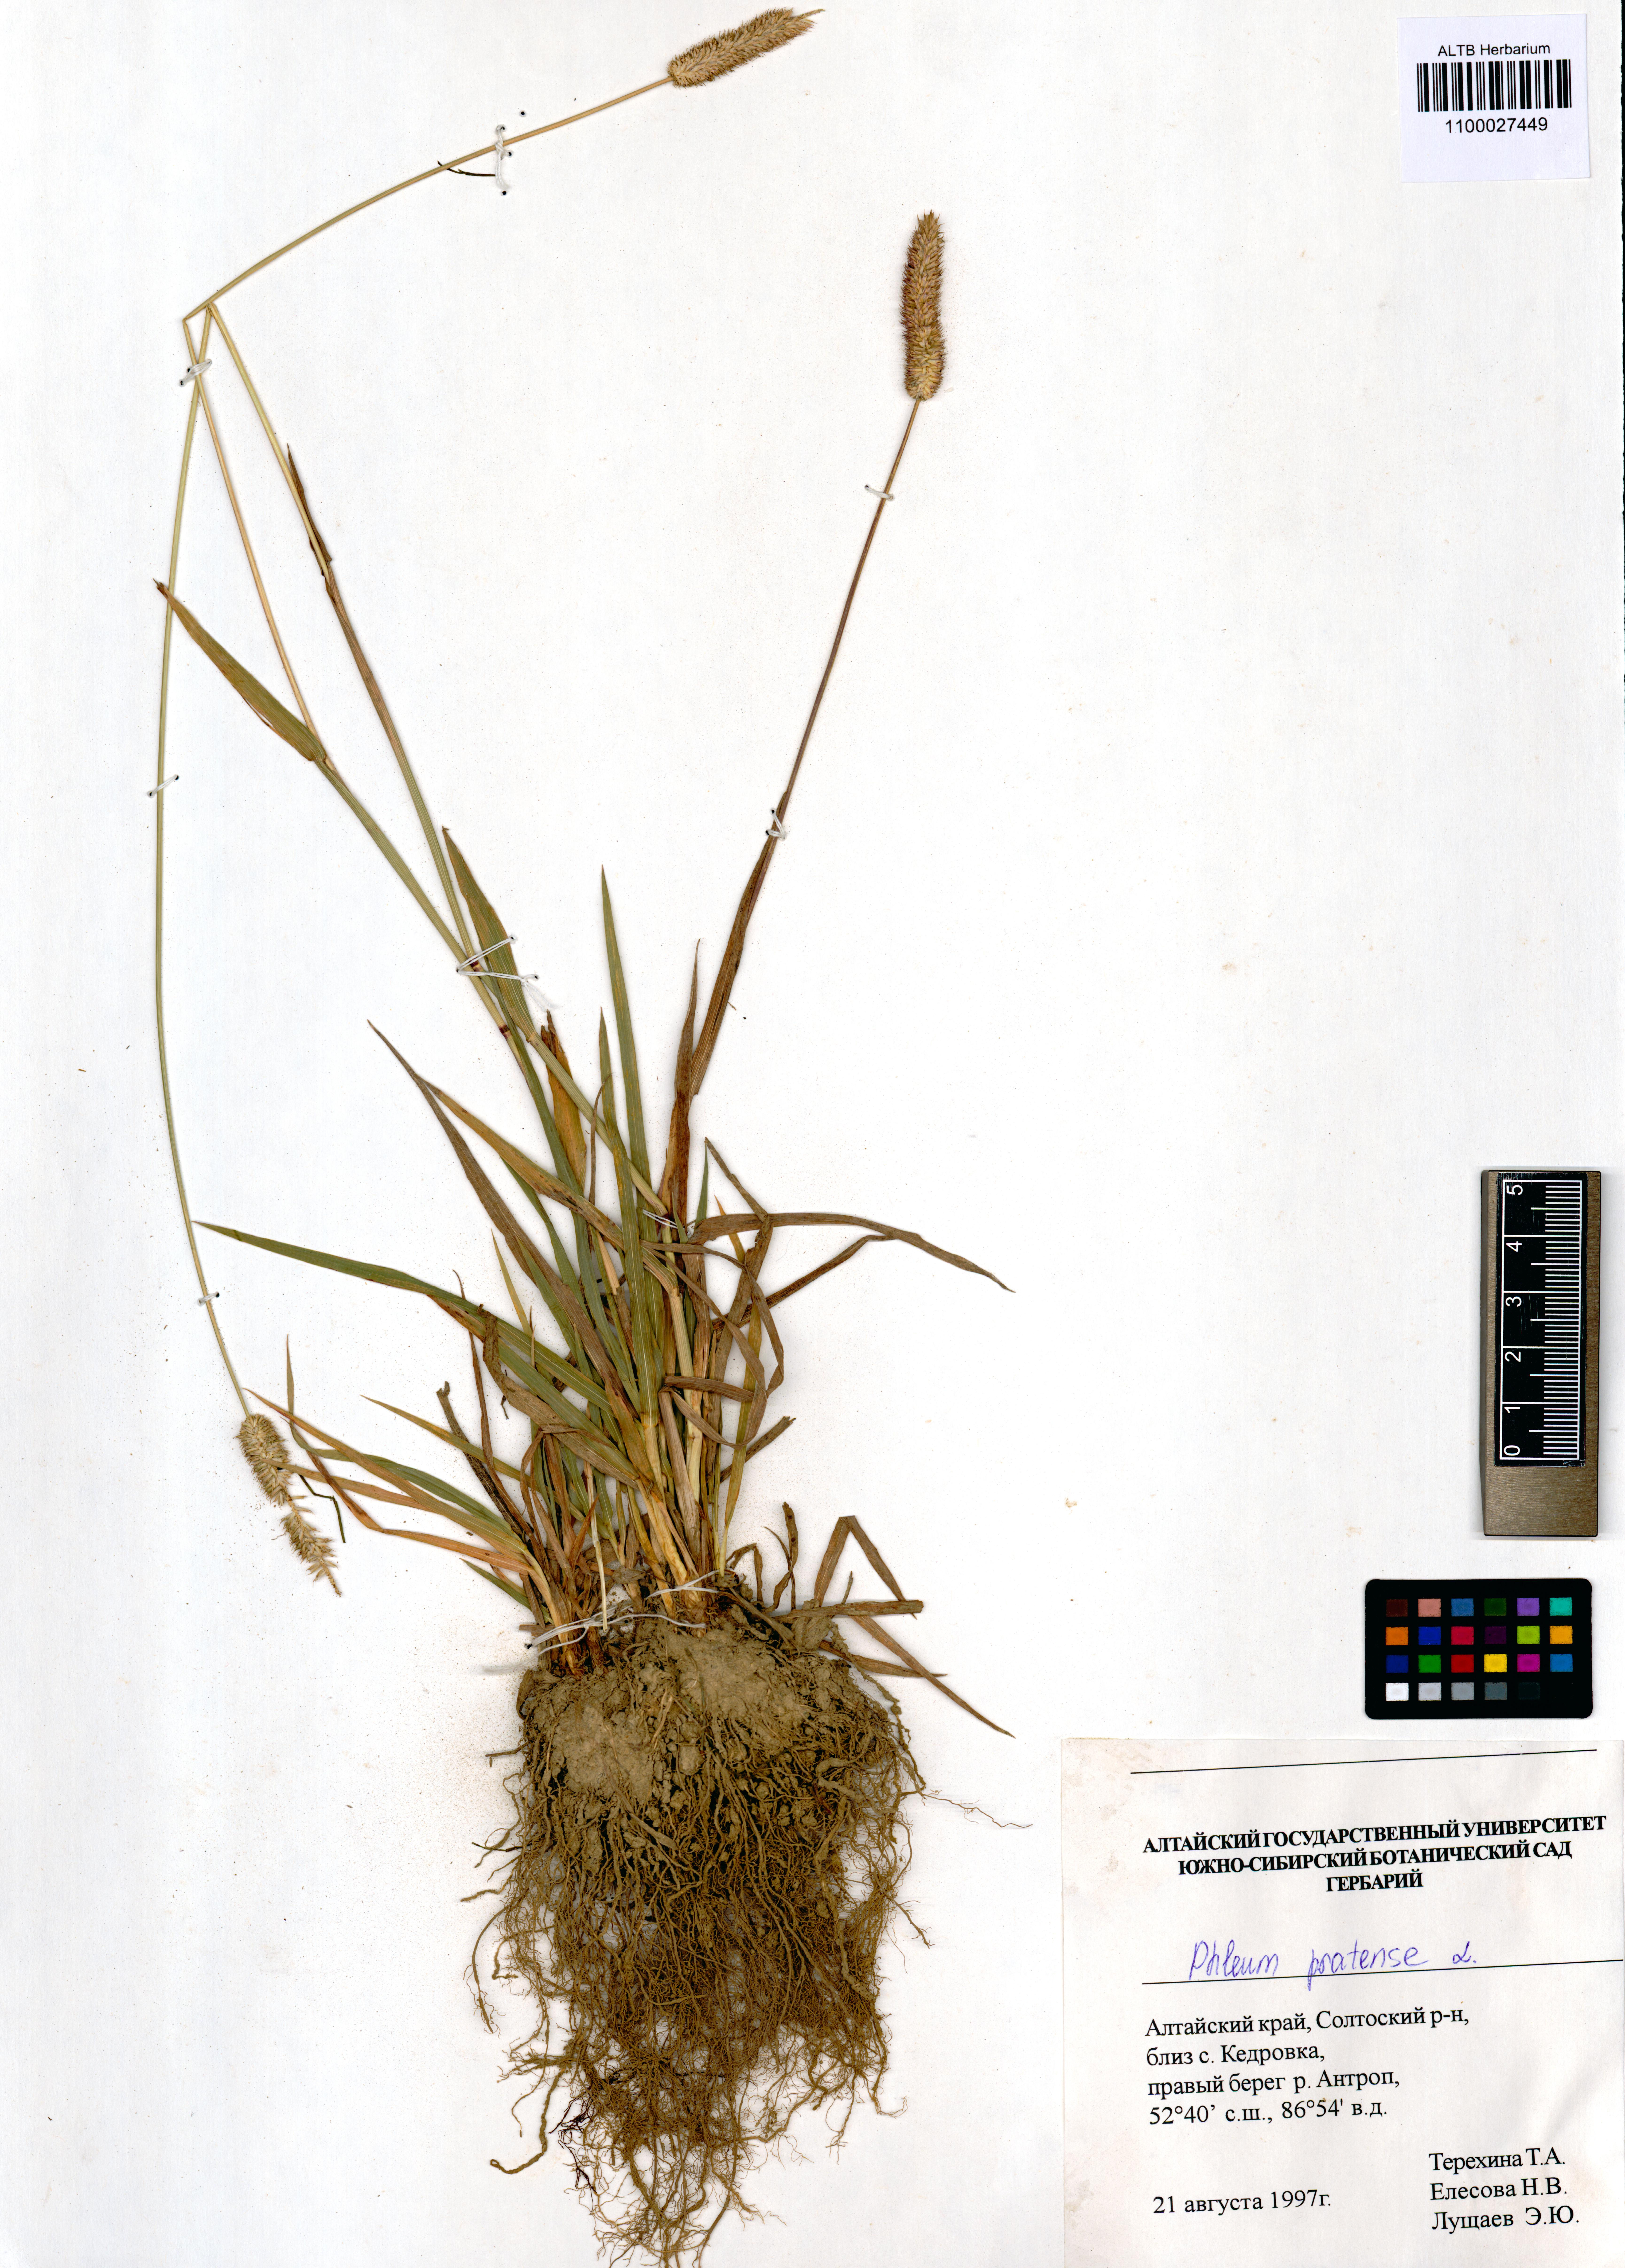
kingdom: Plantae
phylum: Tracheophyta
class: Liliopsida
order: Poales
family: Poaceae
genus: Phleum
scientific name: Phleum pratense
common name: Timothy grass
